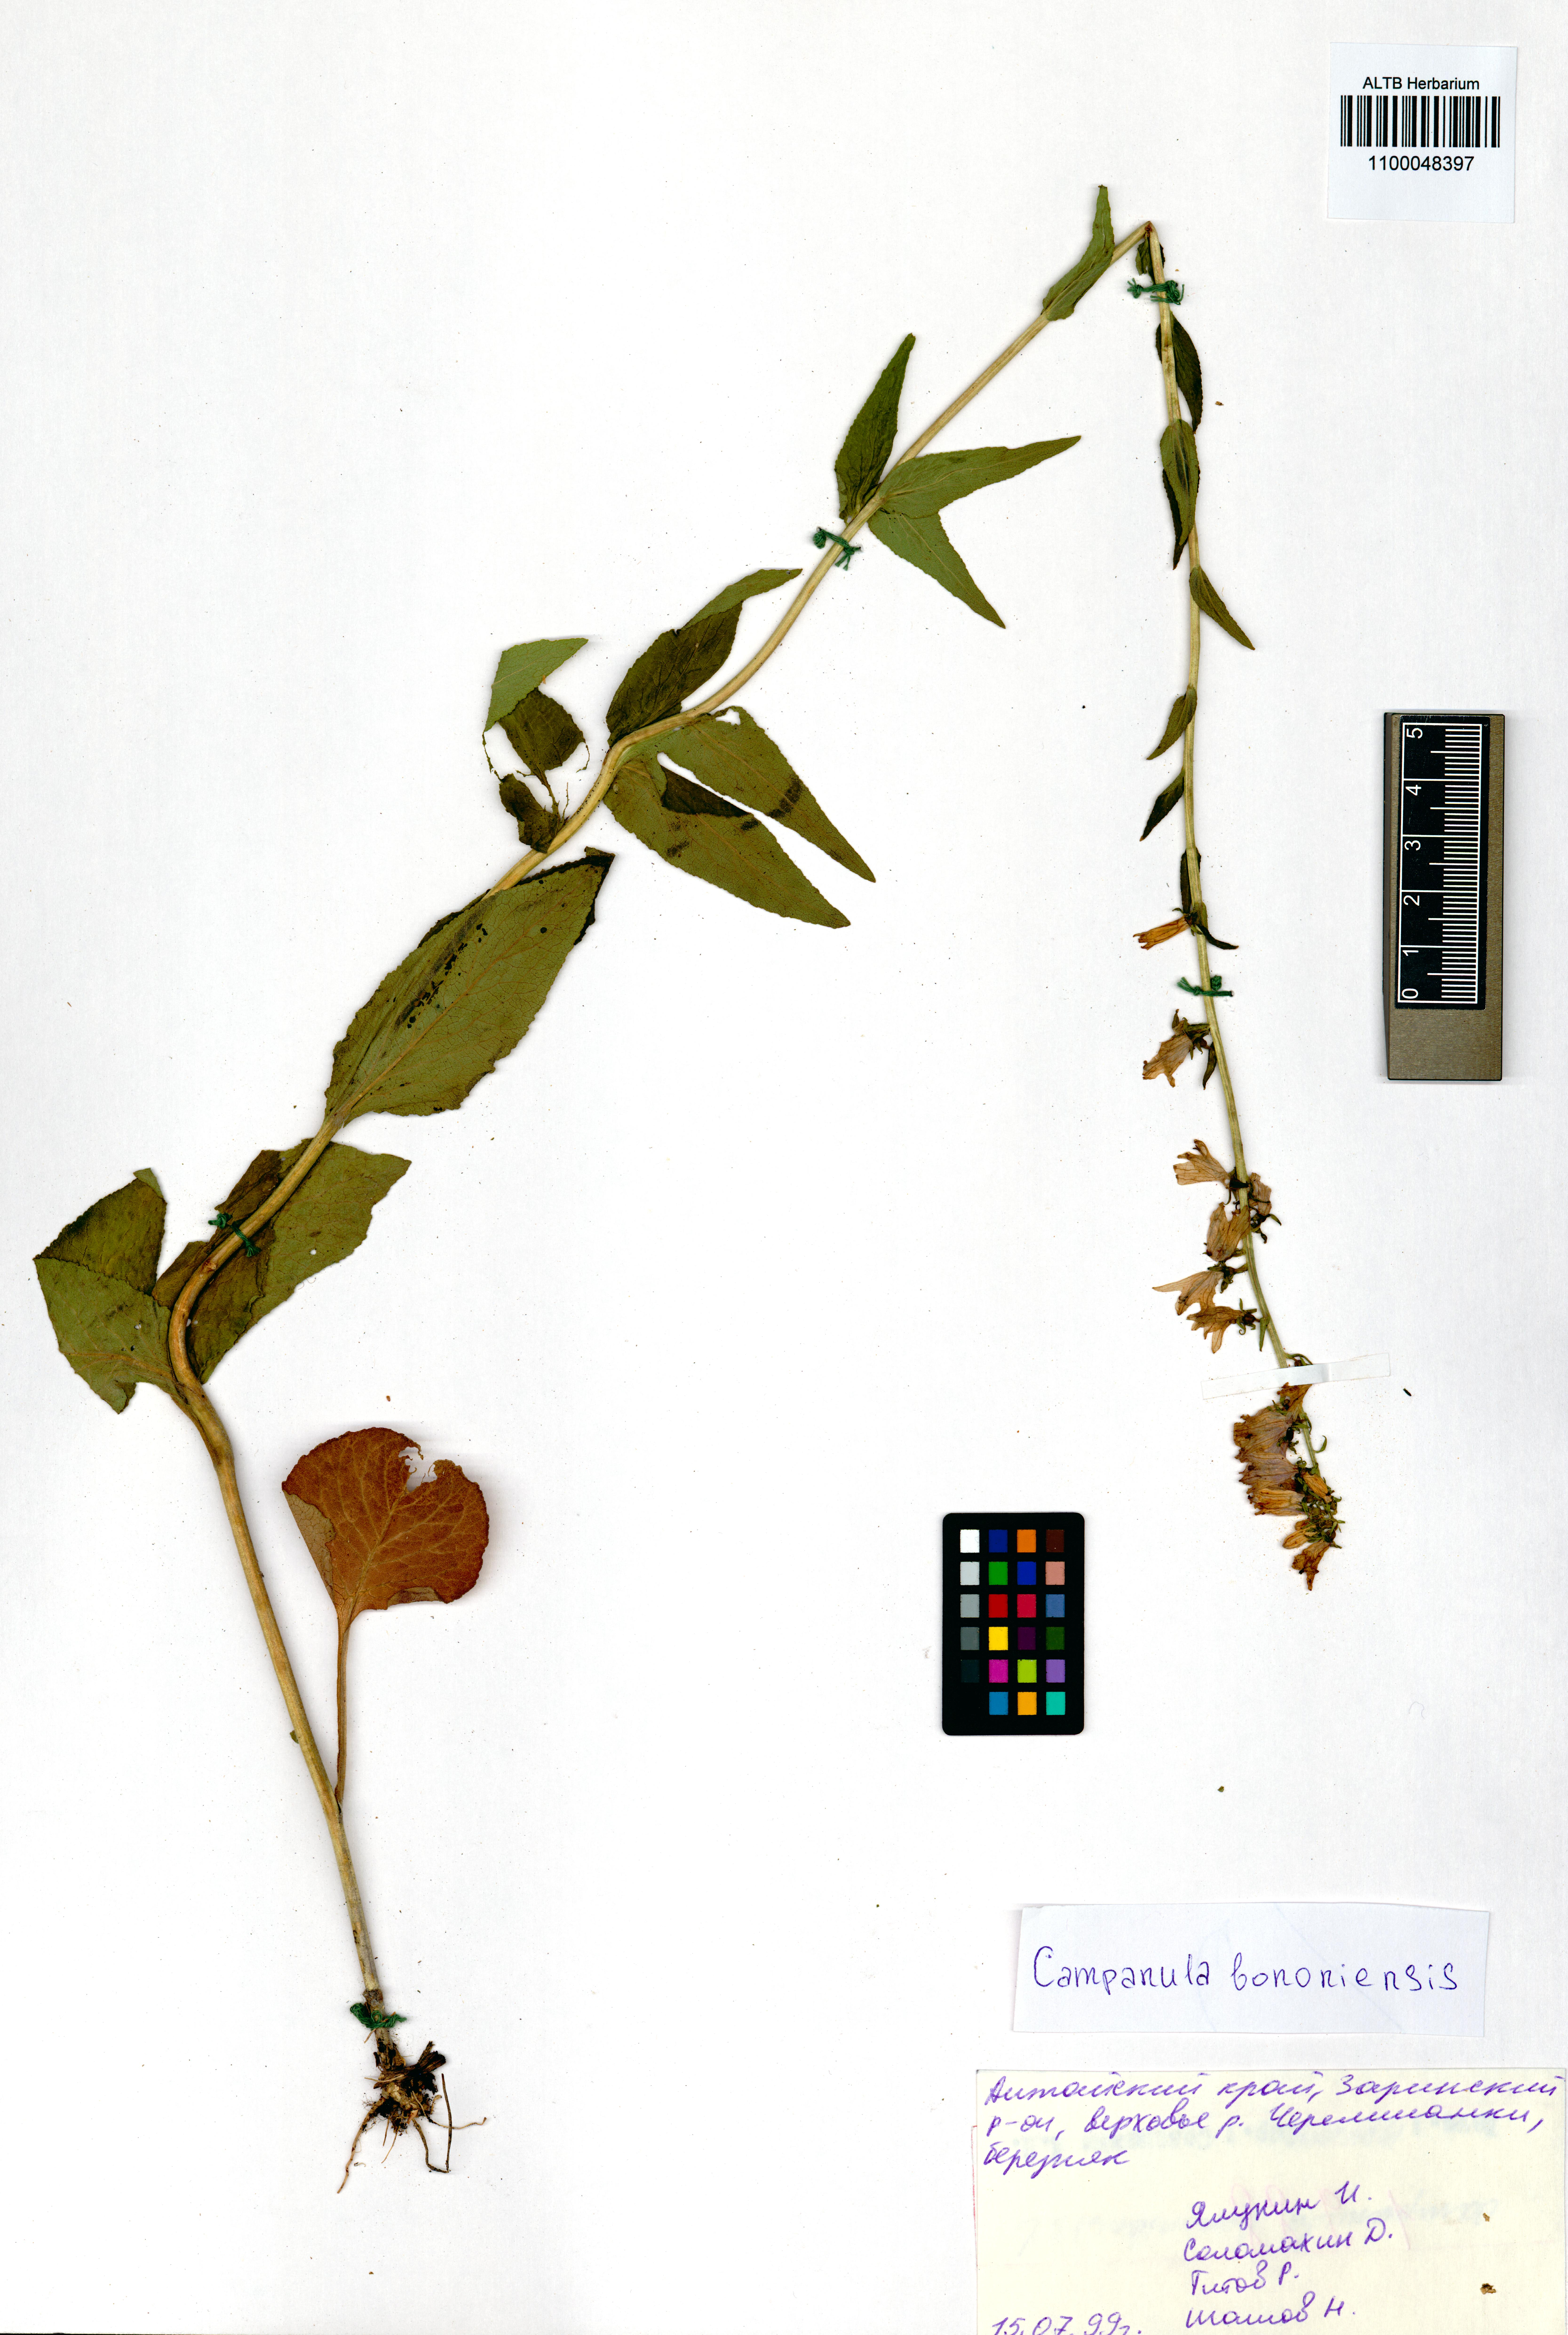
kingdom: Plantae
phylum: Tracheophyta
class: Magnoliopsida
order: Asterales
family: Campanulaceae
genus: Campanula
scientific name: Campanula bononiensis
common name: Pale bellflower
